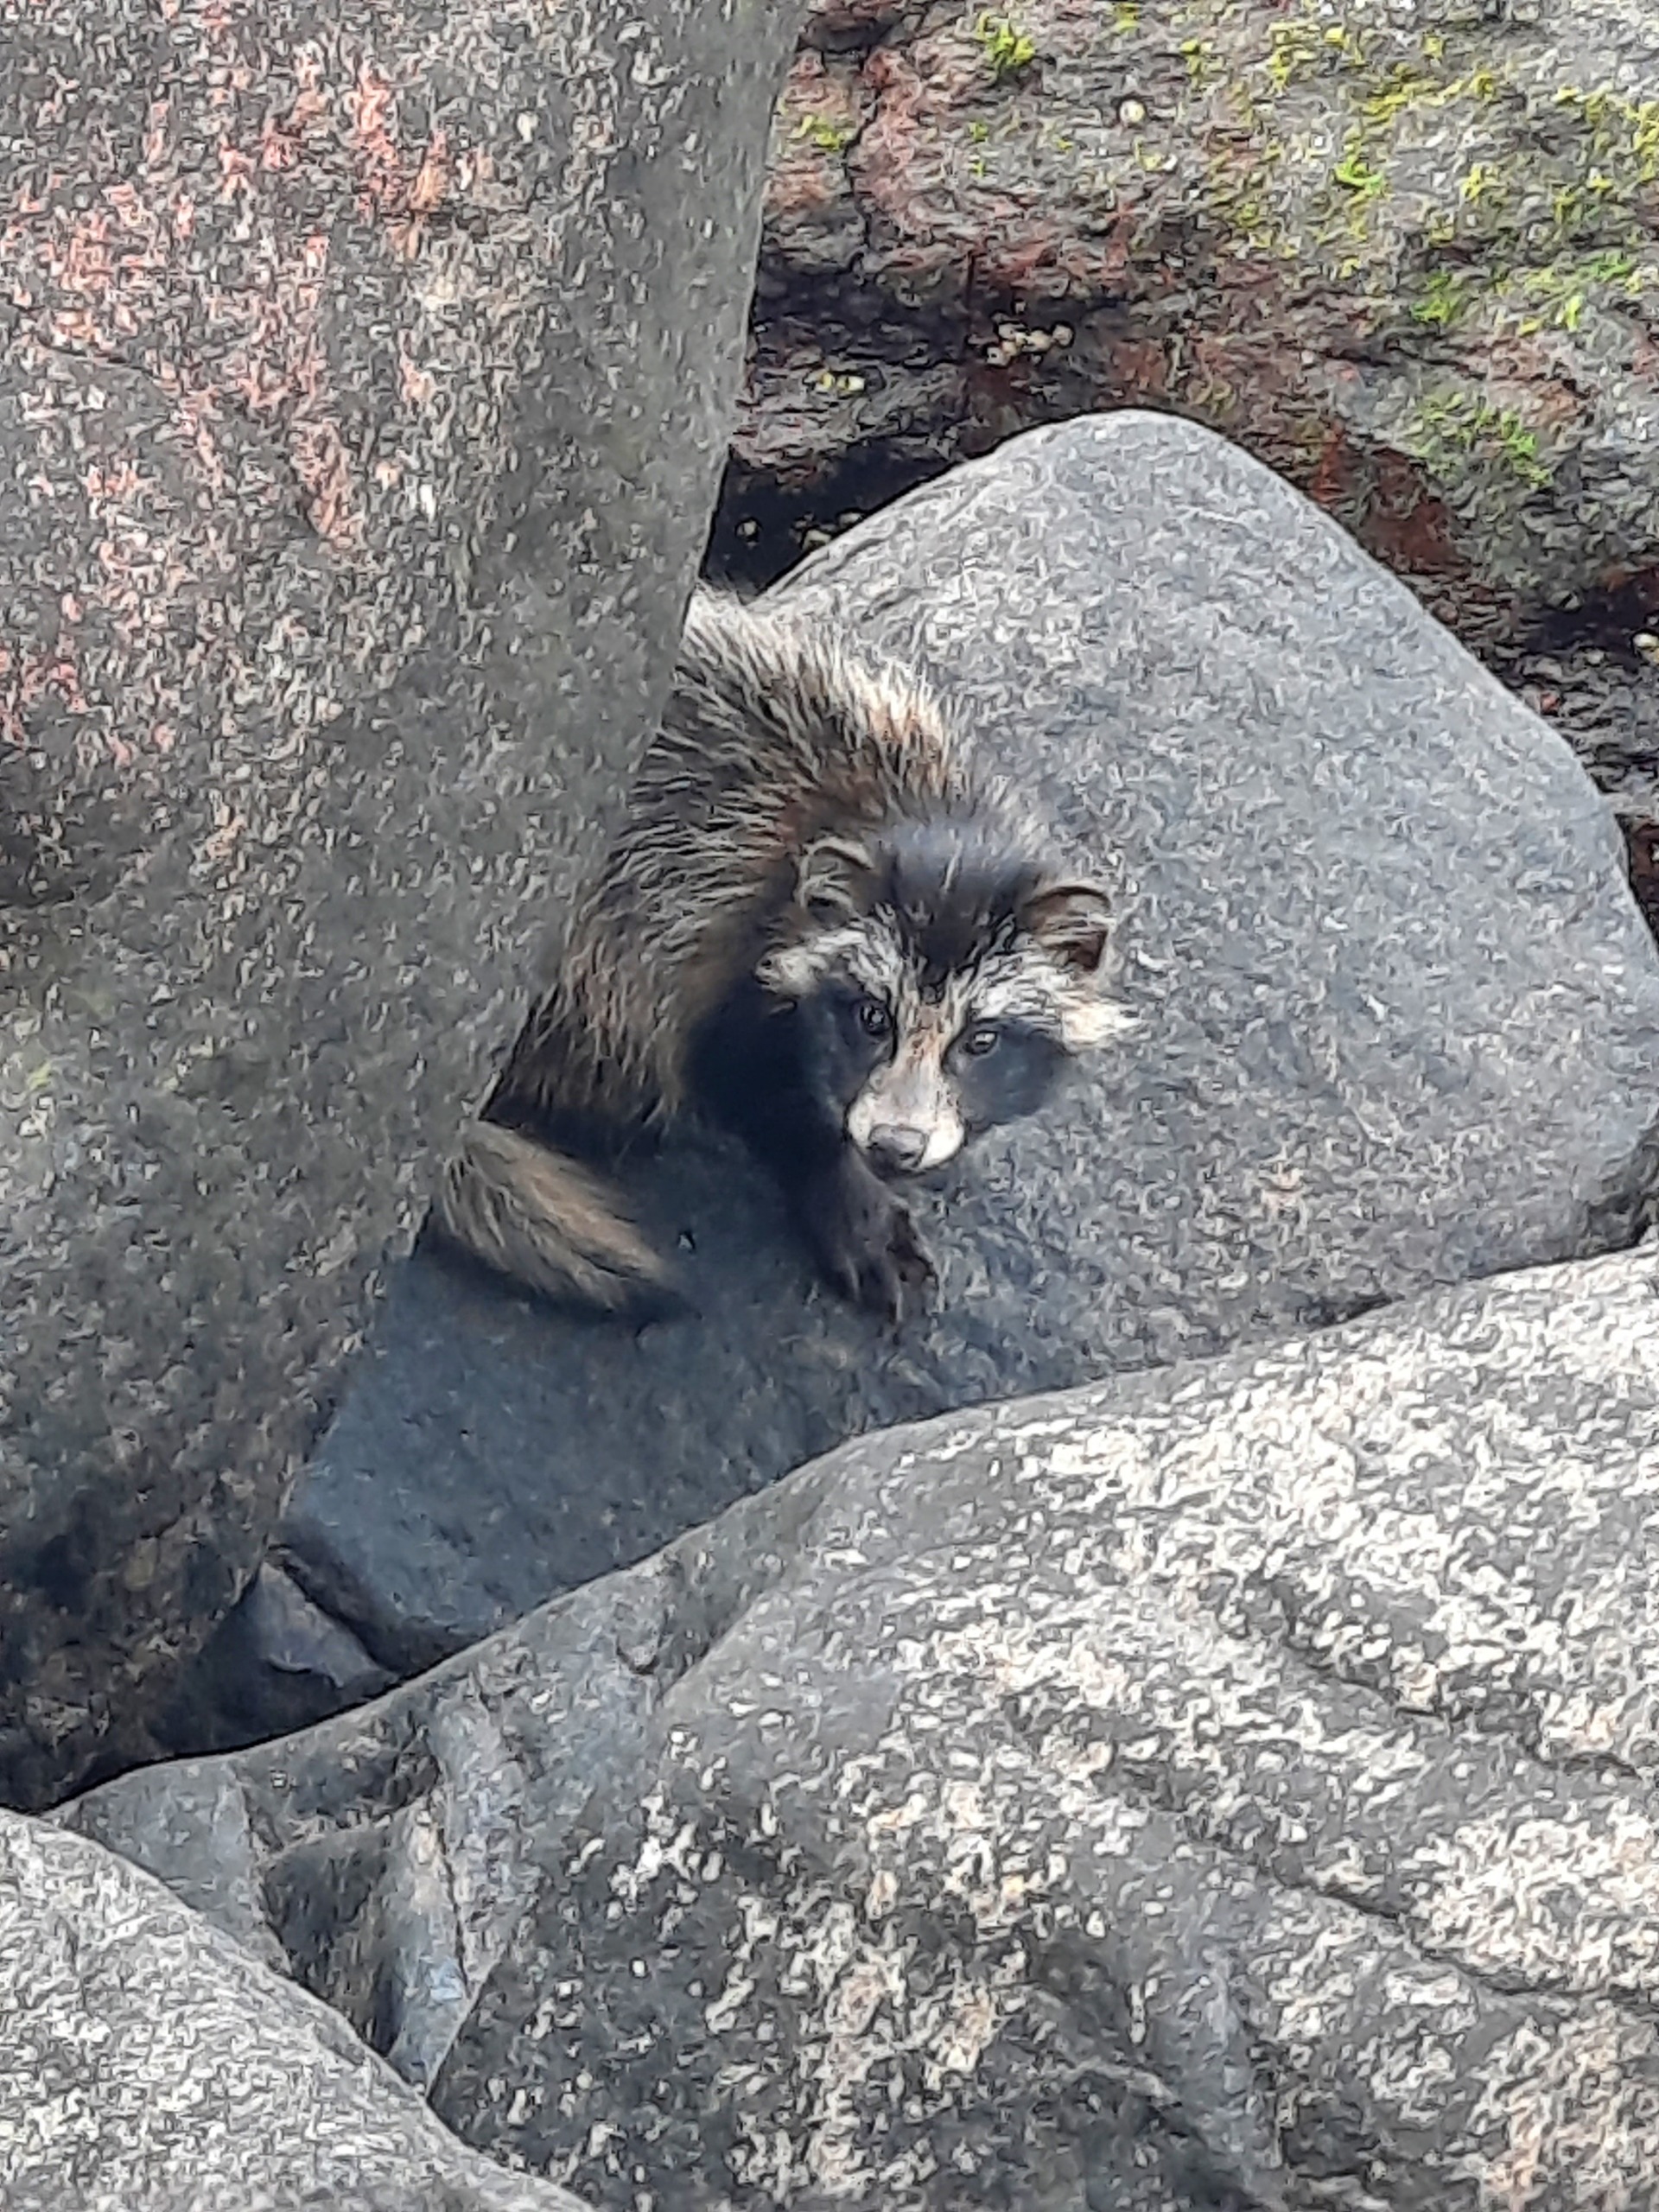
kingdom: Animalia
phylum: Chordata
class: Mammalia
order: Carnivora
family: Canidae
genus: Nyctereutes
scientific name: Nyctereutes procyonoides
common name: Mårhund
